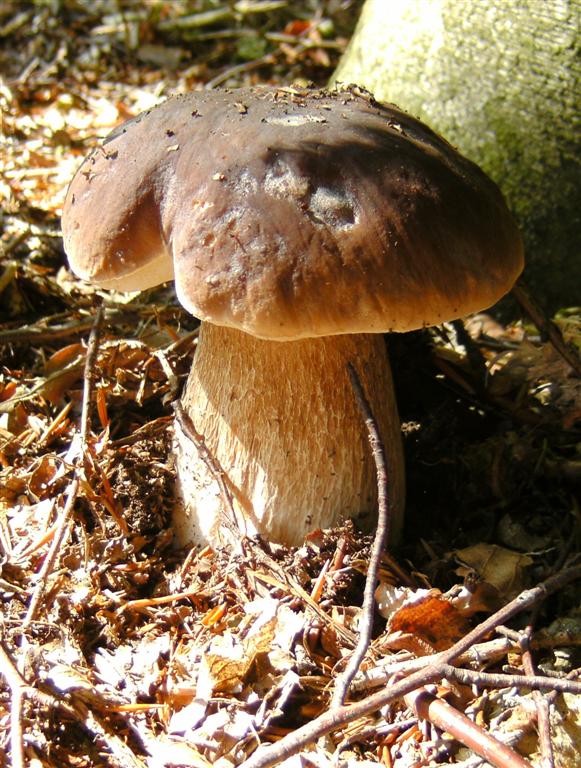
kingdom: Fungi
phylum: Basidiomycota
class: Agaricomycetes
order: Boletales
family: Boletaceae
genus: Boletus
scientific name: Boletus edulis
